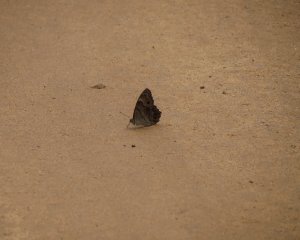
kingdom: Animalia
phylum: Arthropoda
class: Insecta
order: Lepidoptera
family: Nymphalidae
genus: Lethe
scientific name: Lethe anthedon
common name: Northern Pearly-Eye
